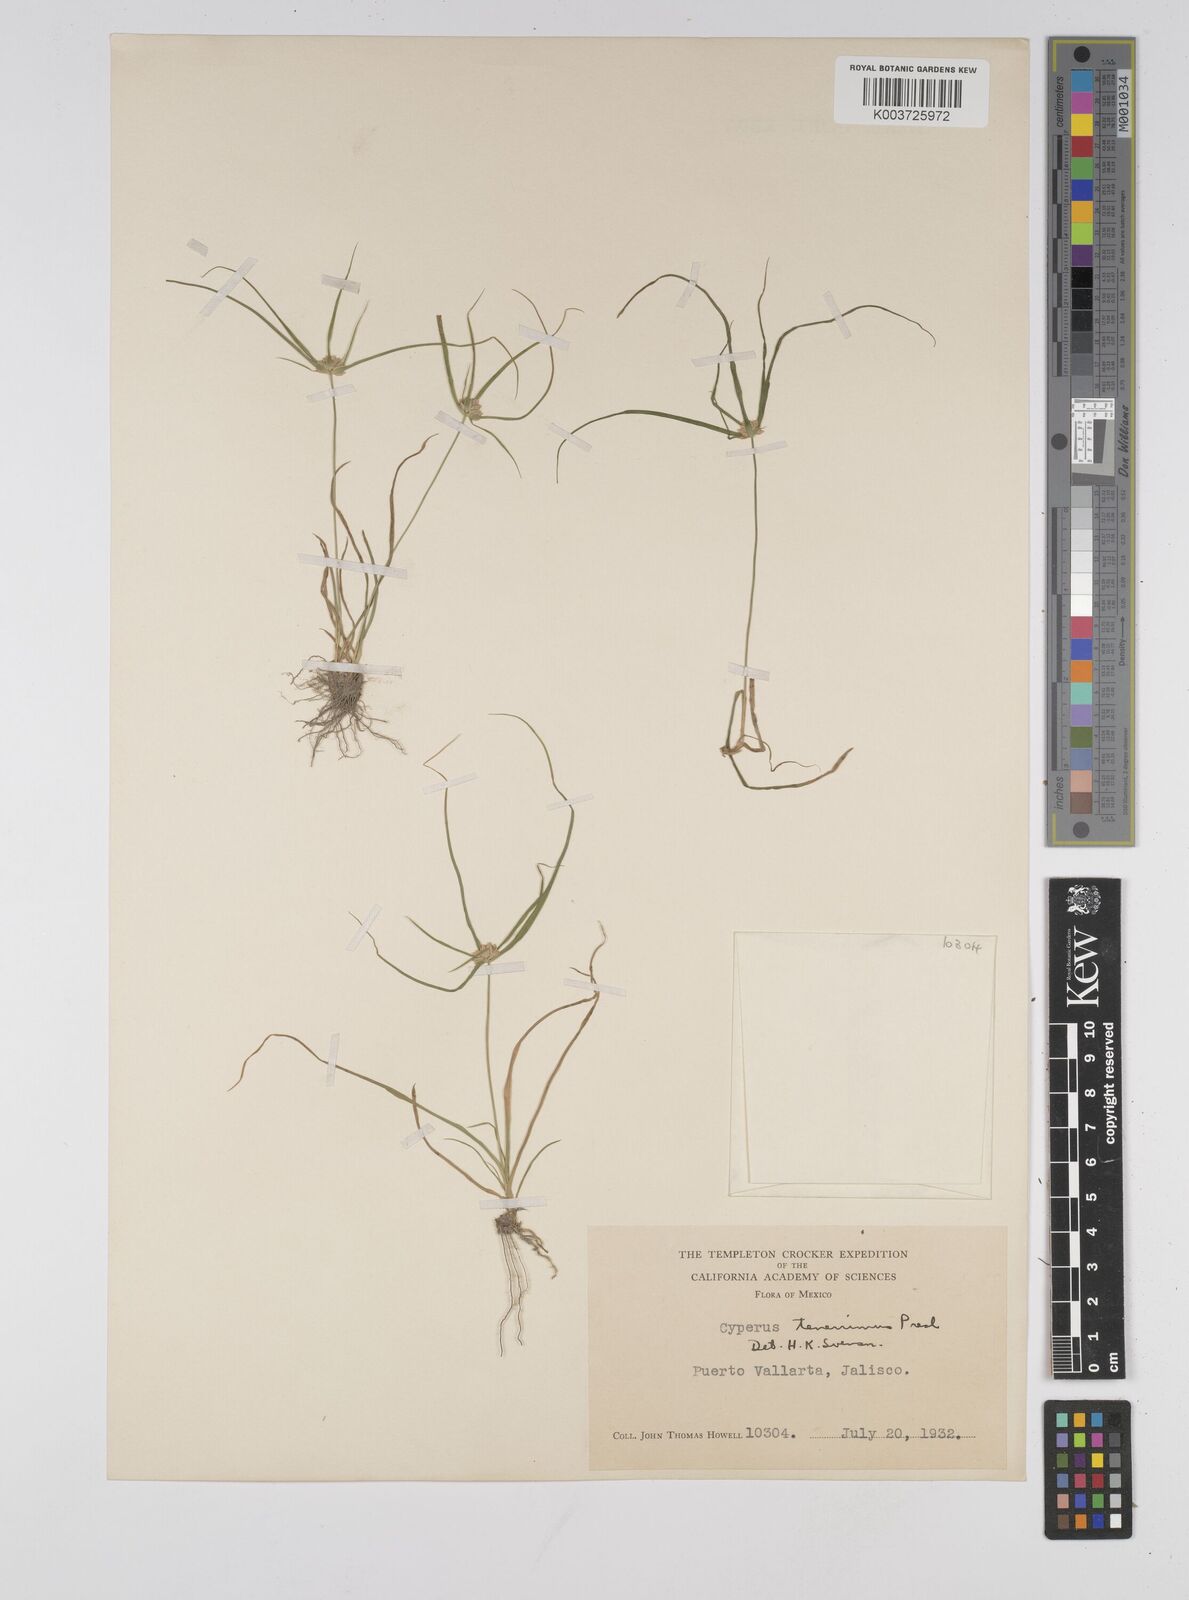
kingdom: Plantae
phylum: Tracheophyta
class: Liliopsida
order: Poales
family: Cyperaceae
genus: Cyperus
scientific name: Cyperus tenerrimus
